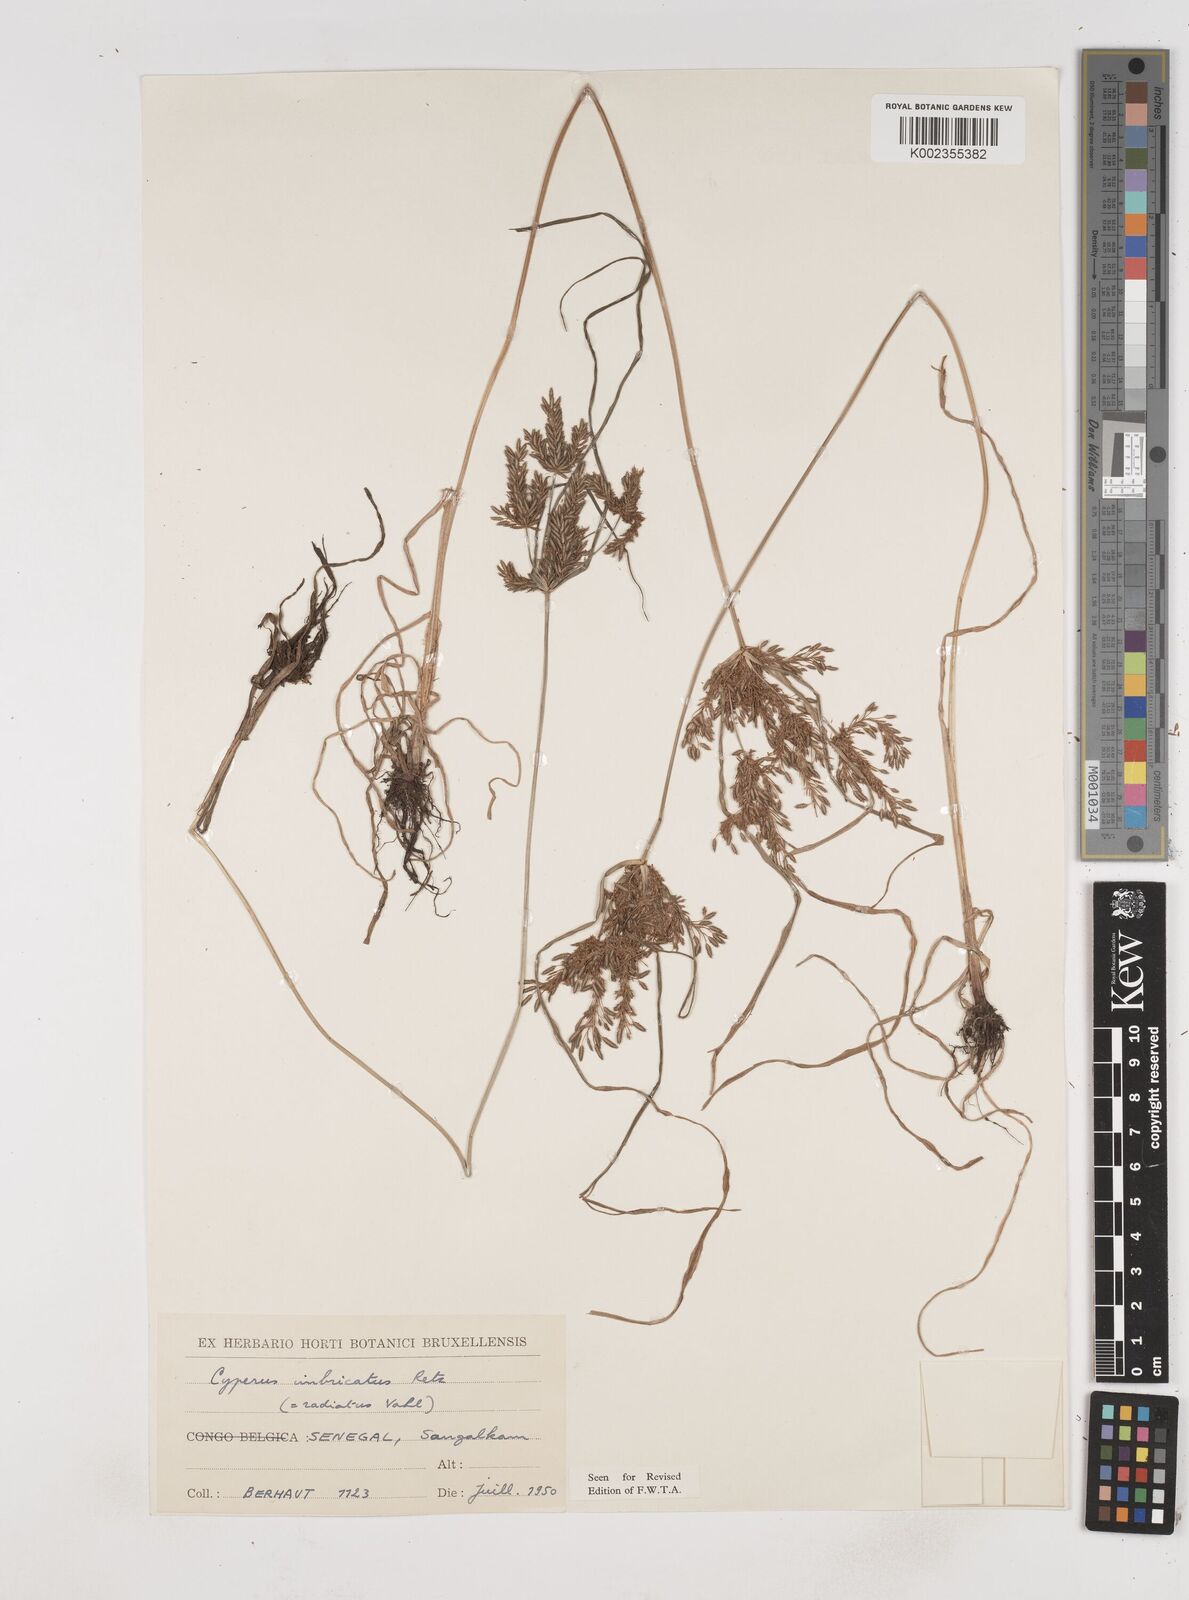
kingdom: Plantae
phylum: Tracheophyta
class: Liliopsida
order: Poales
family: Cyperaceae
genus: Cyperus
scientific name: Cyperus imbricatus
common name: Shingle flatsedge
